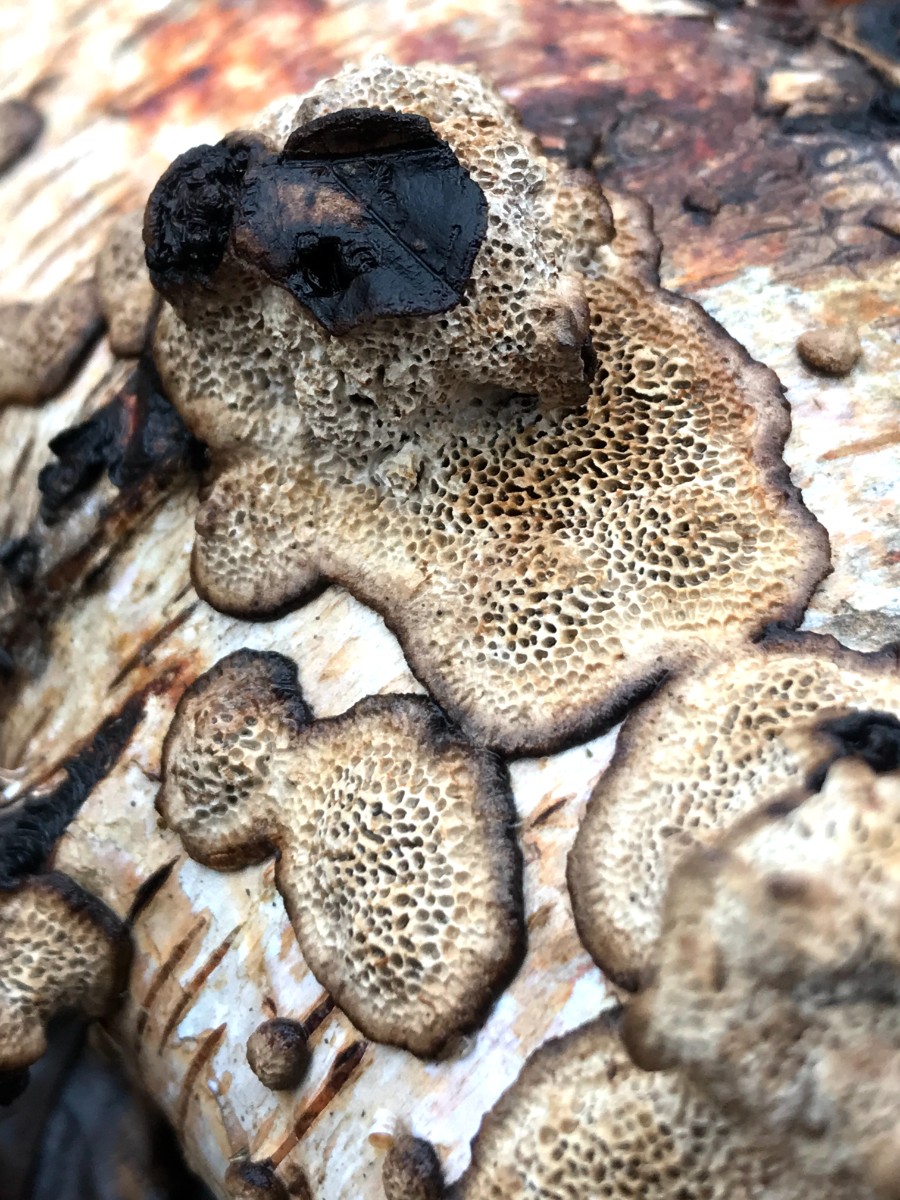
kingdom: Fungi
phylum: Basidiomycota
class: Agaricomycetes
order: Polyporales
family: Polyporaceae
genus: Podofomes
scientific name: Podofomes mollis
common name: blød begporesvamp
